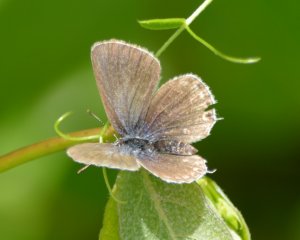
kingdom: Animalia
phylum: Arthropoda
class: Insecta
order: Lepidoptera
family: Lycaenidae
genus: Elkalyce
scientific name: Elkalyce amyntula
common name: Western Tailed-Blue
